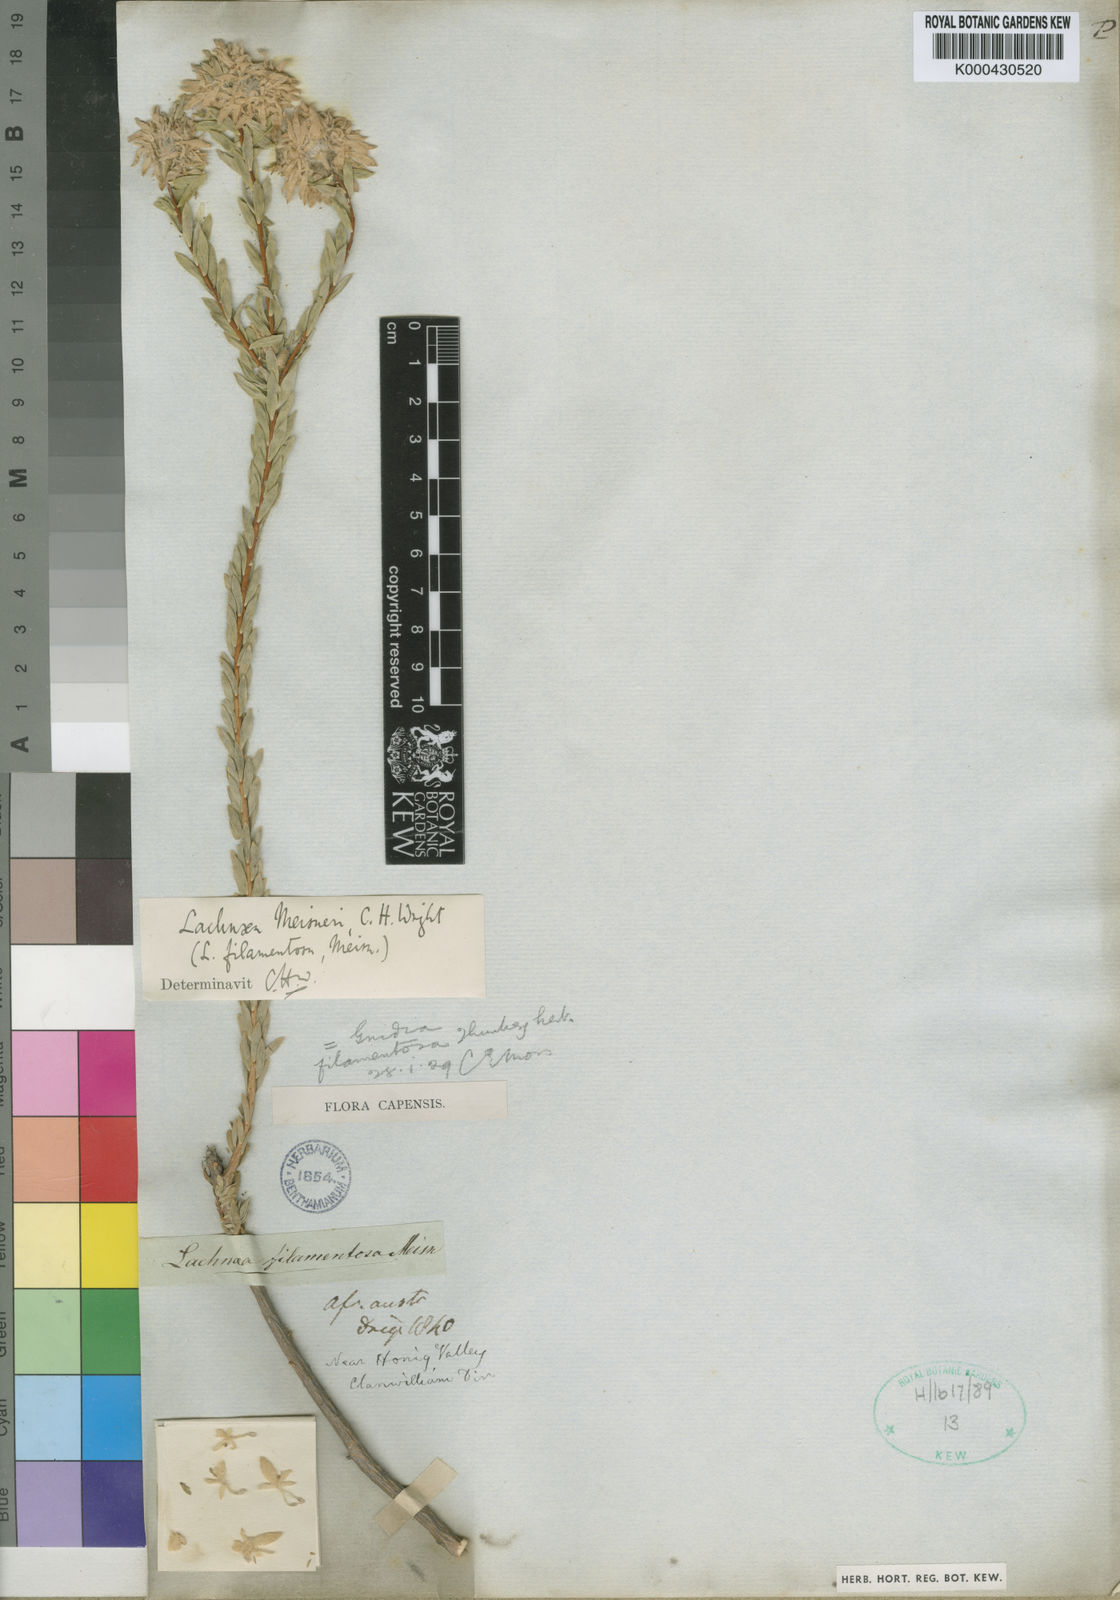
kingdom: Plantae
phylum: Tracheophyta
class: Magnoliopsida
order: Malvales
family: Thymelaeaceae
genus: Lachnaea
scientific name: Lachnaea filamentosa
